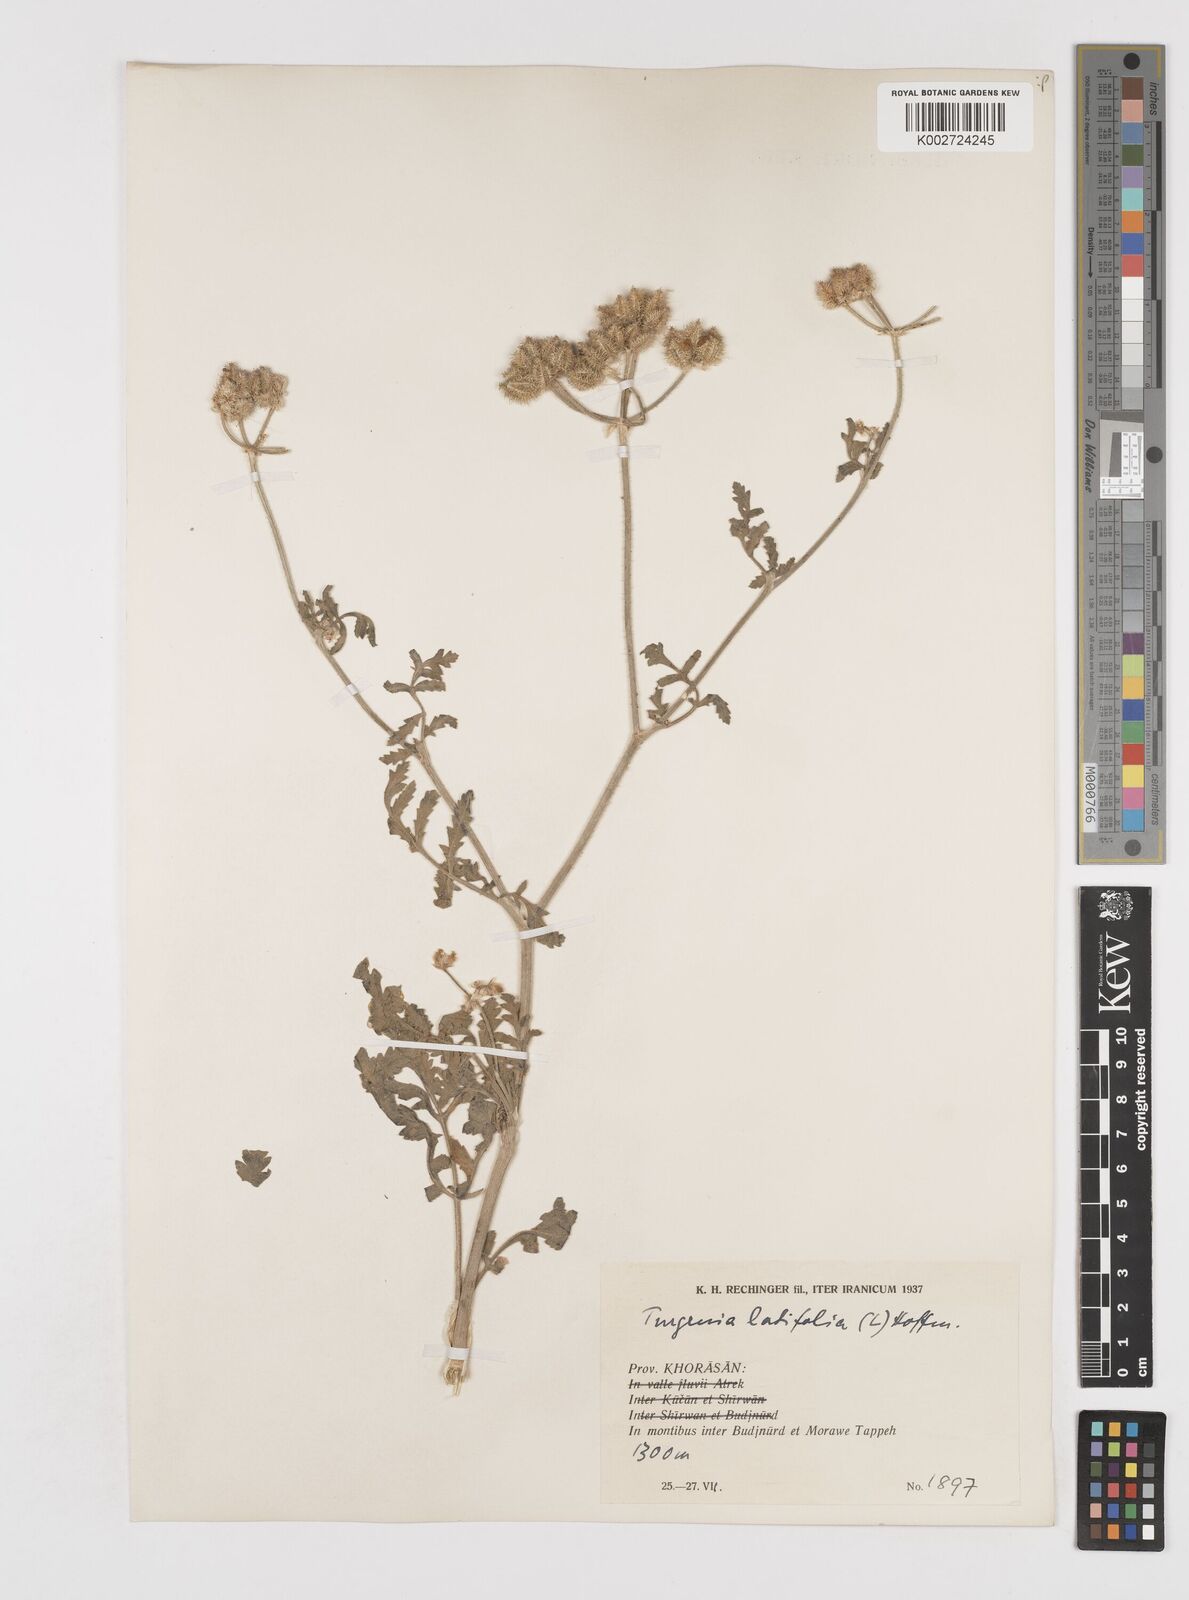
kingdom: Plantae
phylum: Tracheophyta
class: Magnoliopsida
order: Apiales
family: Apiaceae
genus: Turgenia
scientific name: Turgenia latifolia
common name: Greater bur-parsley
